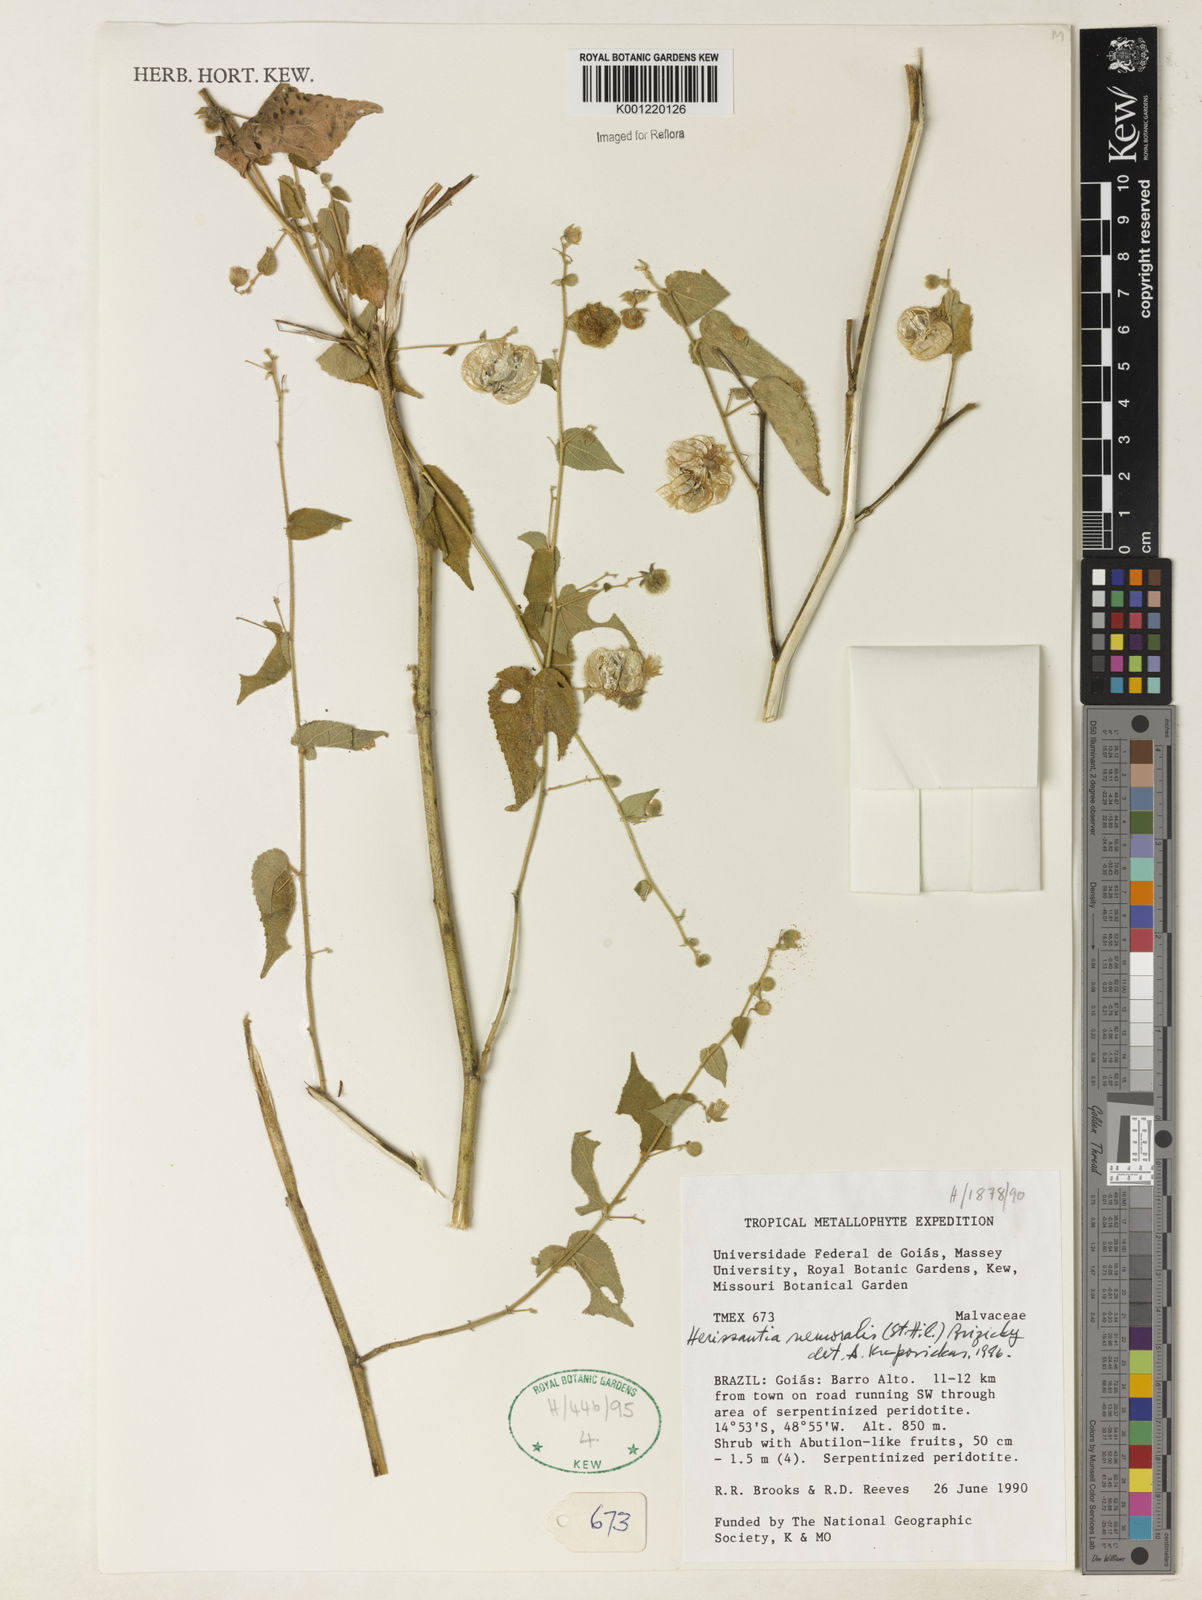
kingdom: Plantae
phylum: Tracheophyta
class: Magnoliopsida
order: Malvales
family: Malvaceae
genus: Herissantia
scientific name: Herissantia nemoralis
